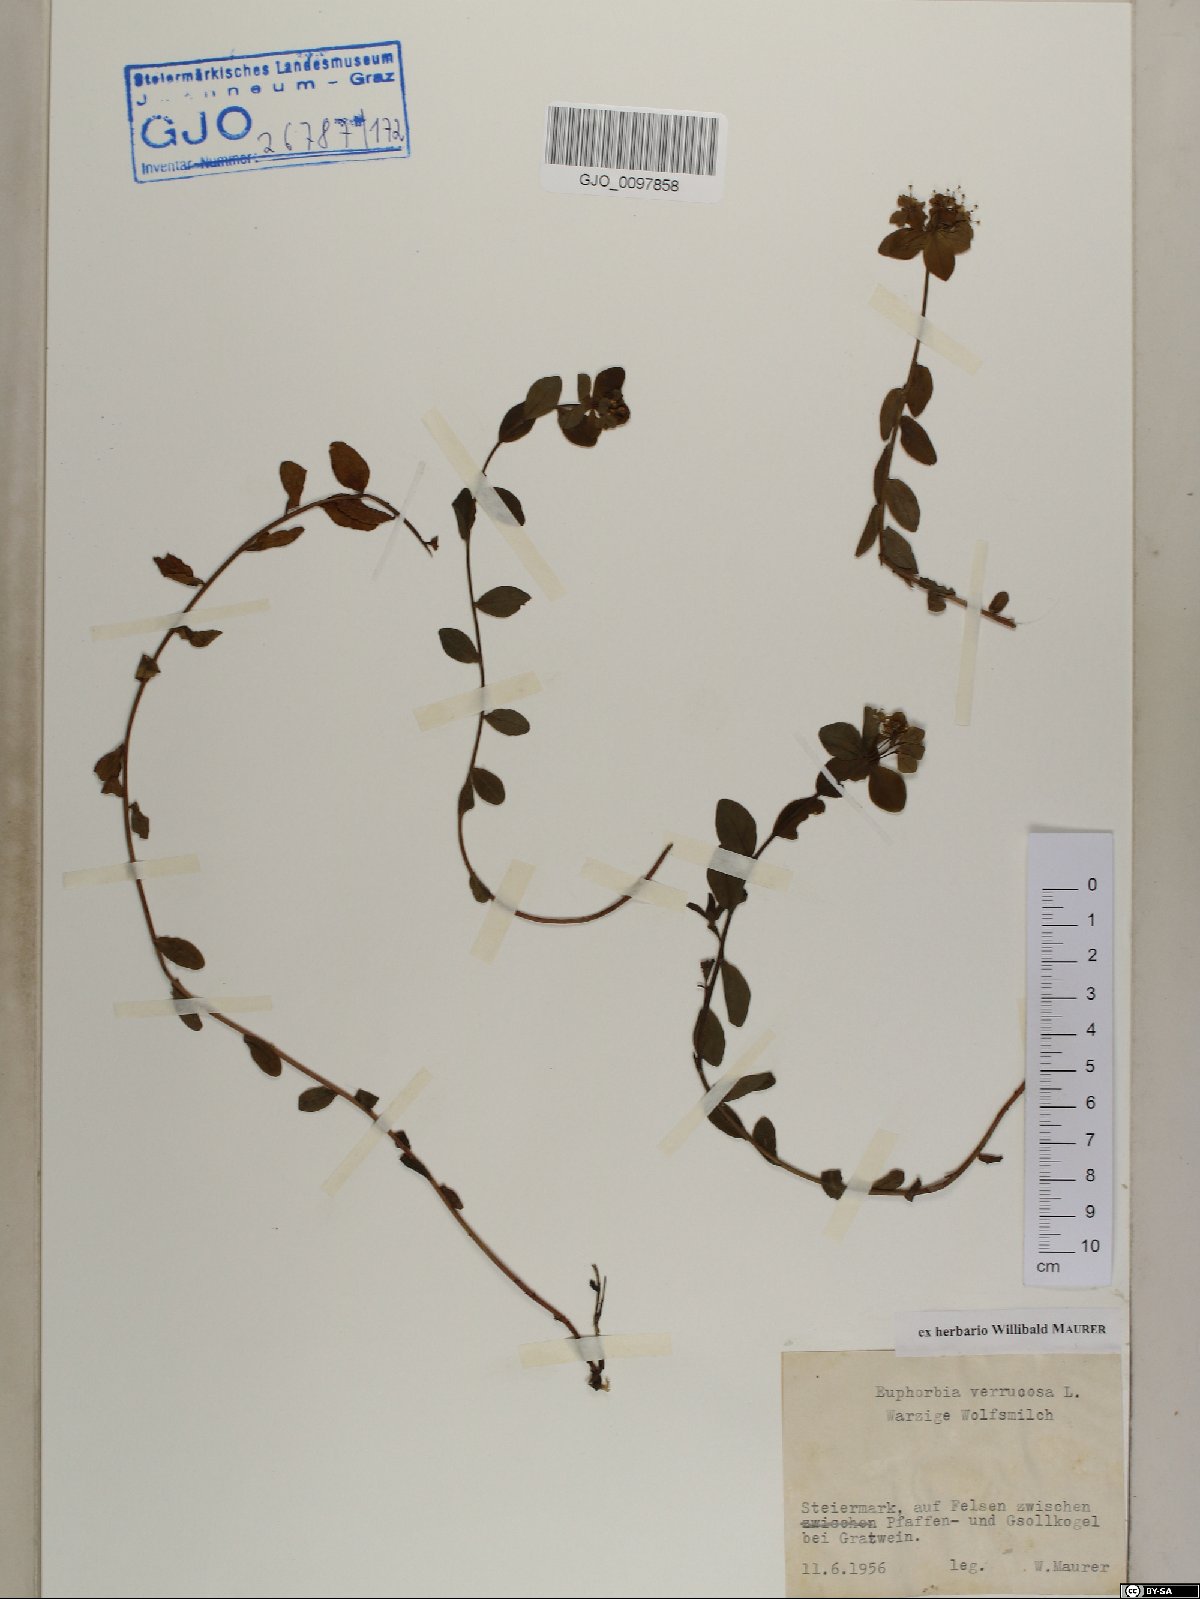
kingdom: Plantae
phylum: Tracheophyta
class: Magnoliopsida
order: Malpighiales
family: Euphorbiaceae
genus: Euphorbia
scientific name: Euphorbia verrucosa
